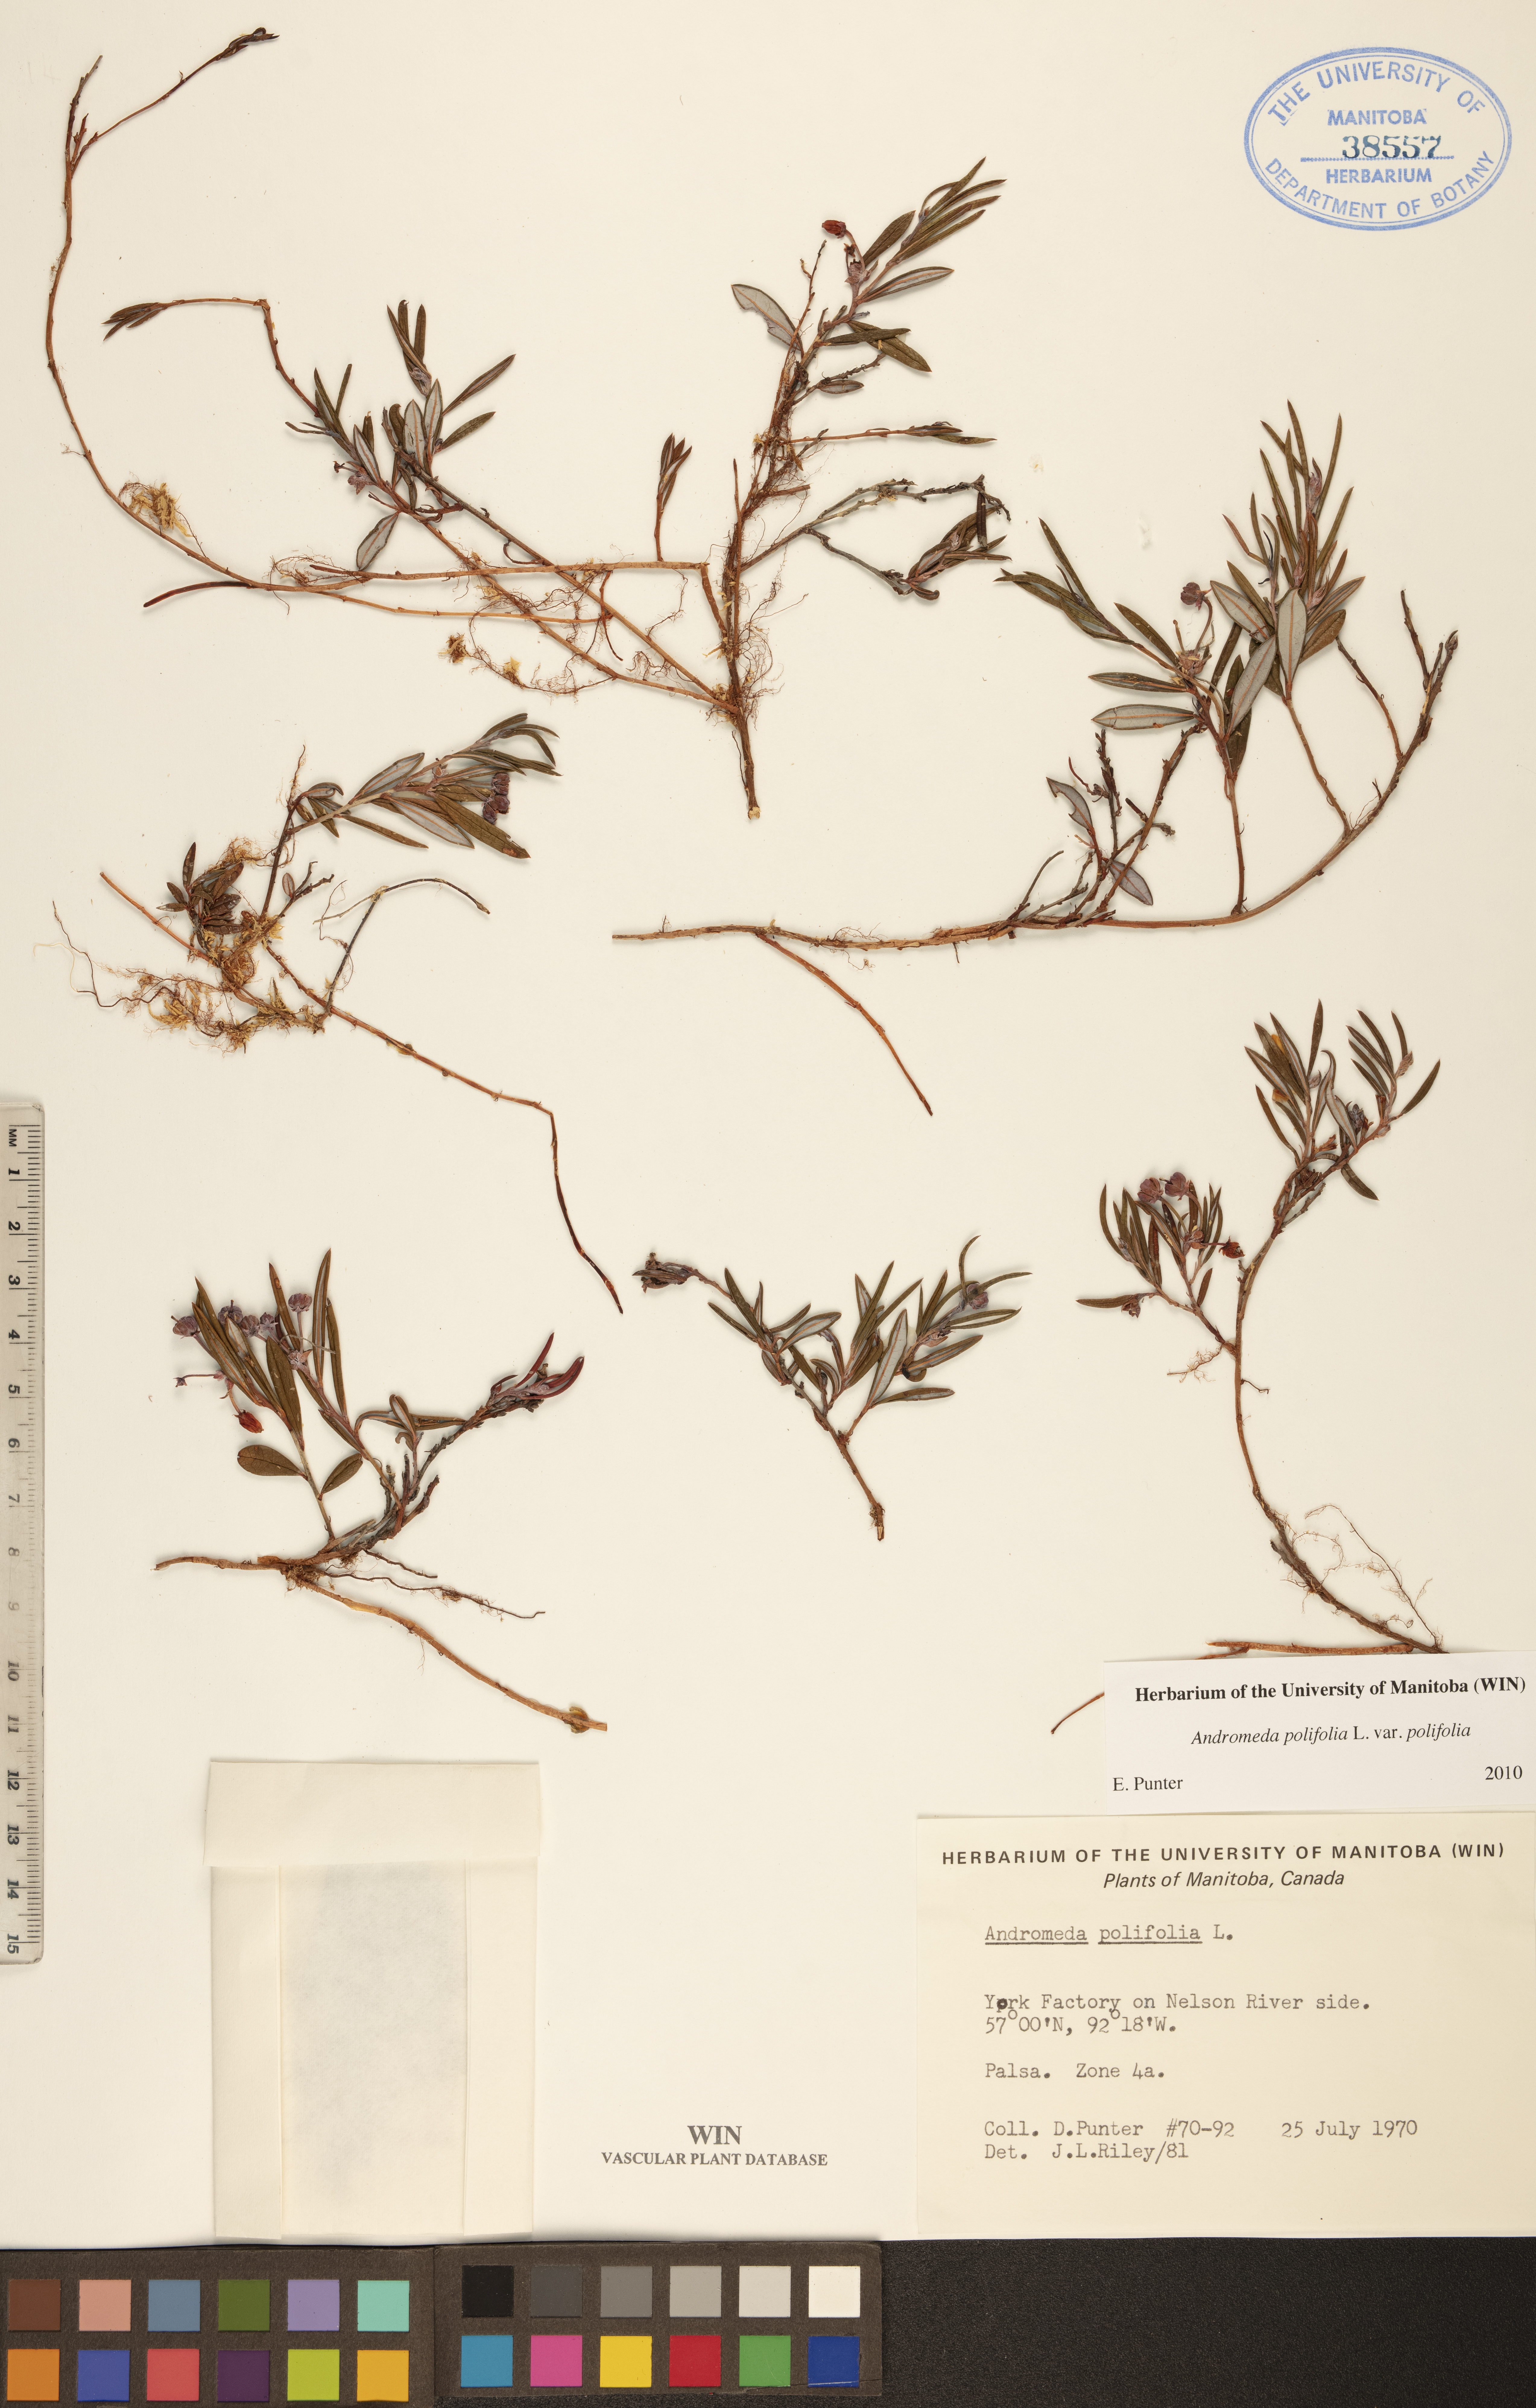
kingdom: Plantae
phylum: Tracheophyta
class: Magnoliopsida
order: Ericales
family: Ericaceae
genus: Andromeda
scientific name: Andromeda polifolia
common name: Bog-rosemary
